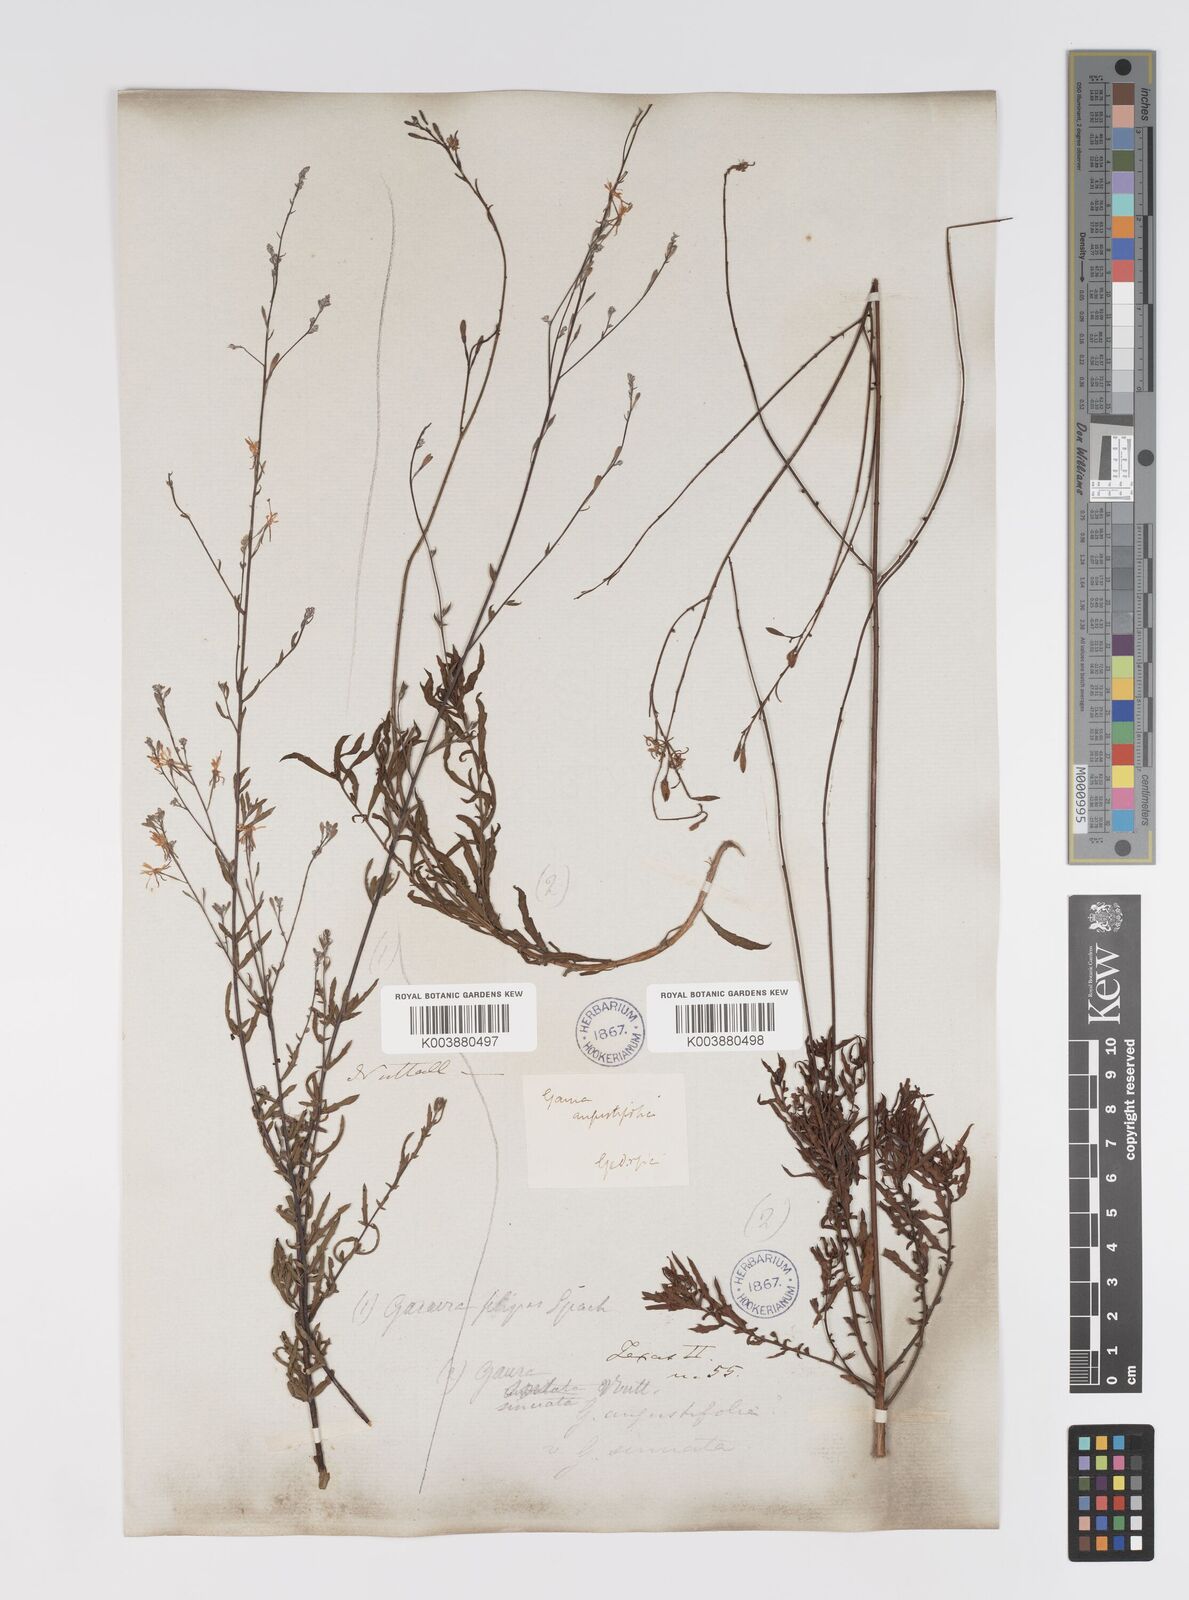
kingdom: Plantae
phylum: Tracheophyta
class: Magnoliopsida
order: Myrtales
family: Onagraceae
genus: Oenothera
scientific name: Oenothera sinuosa
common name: Wavyleaf beeblossom
